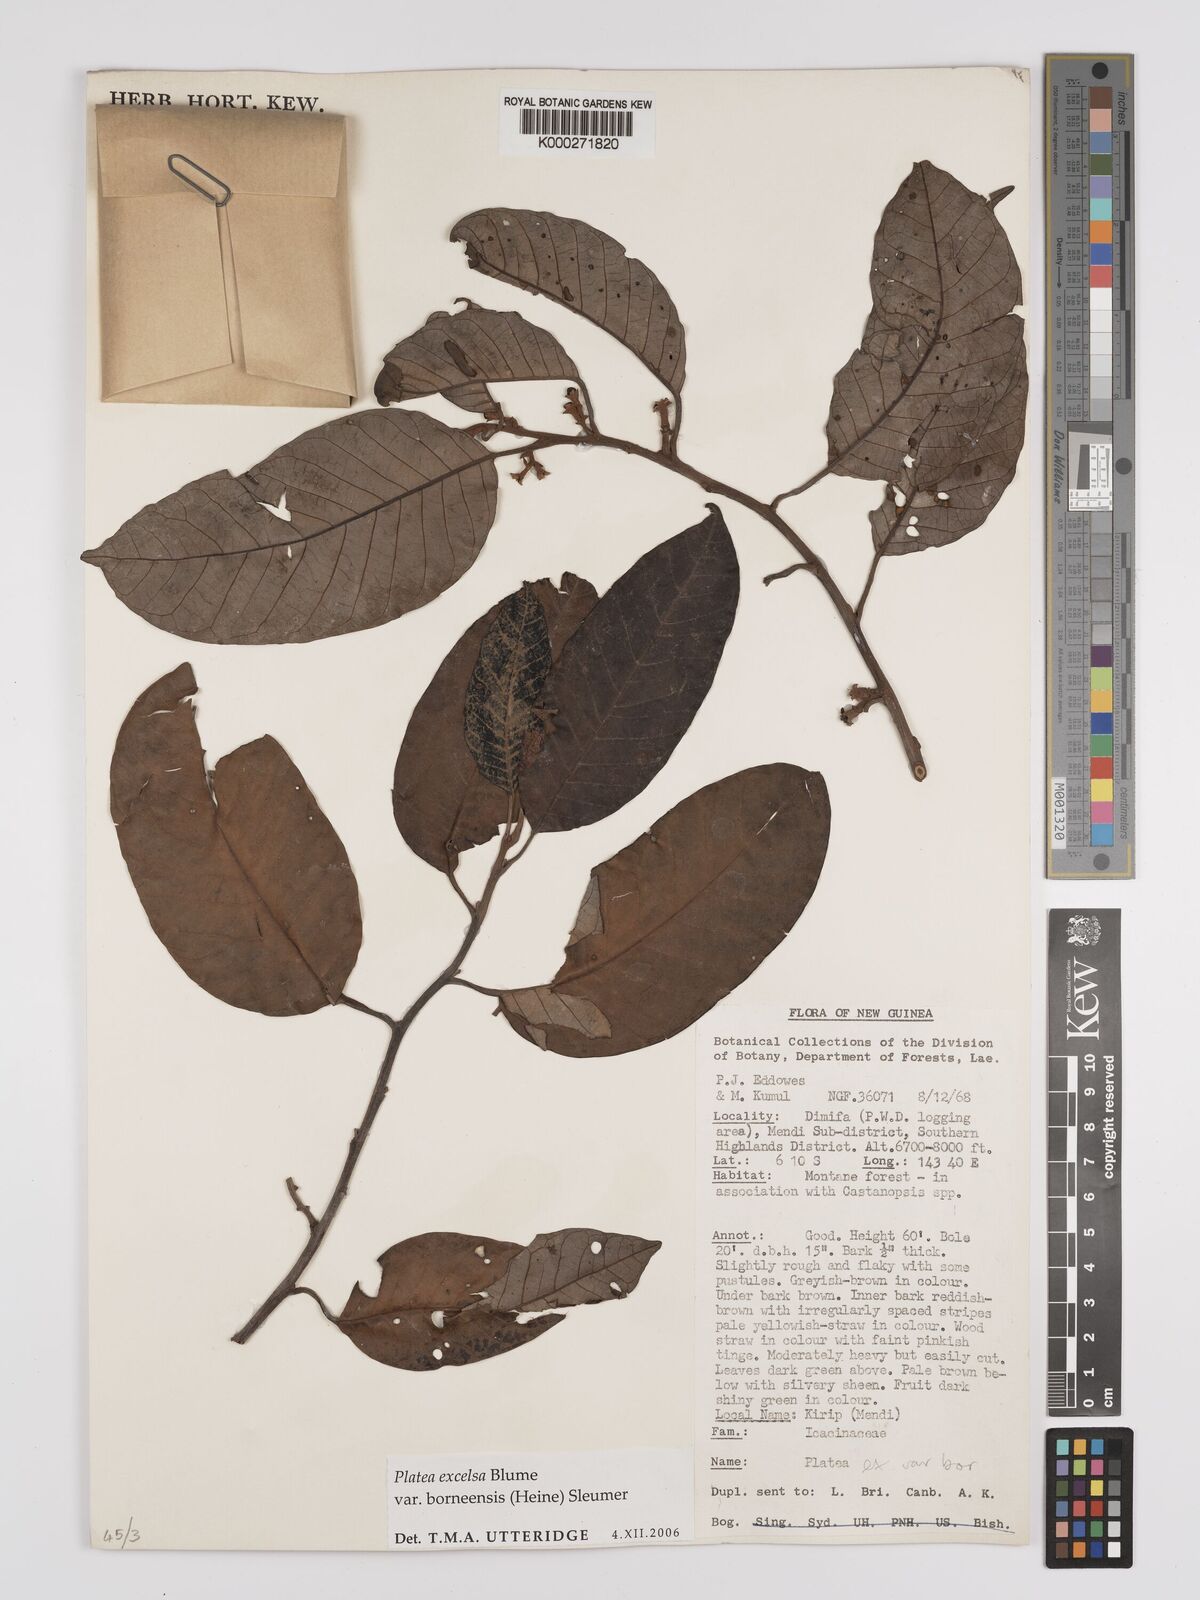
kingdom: Plantae
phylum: Tracheophyta
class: Magnoliopsida
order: Metteniusales
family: Metteniusaceae
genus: Platea
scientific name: Platea excelsa
